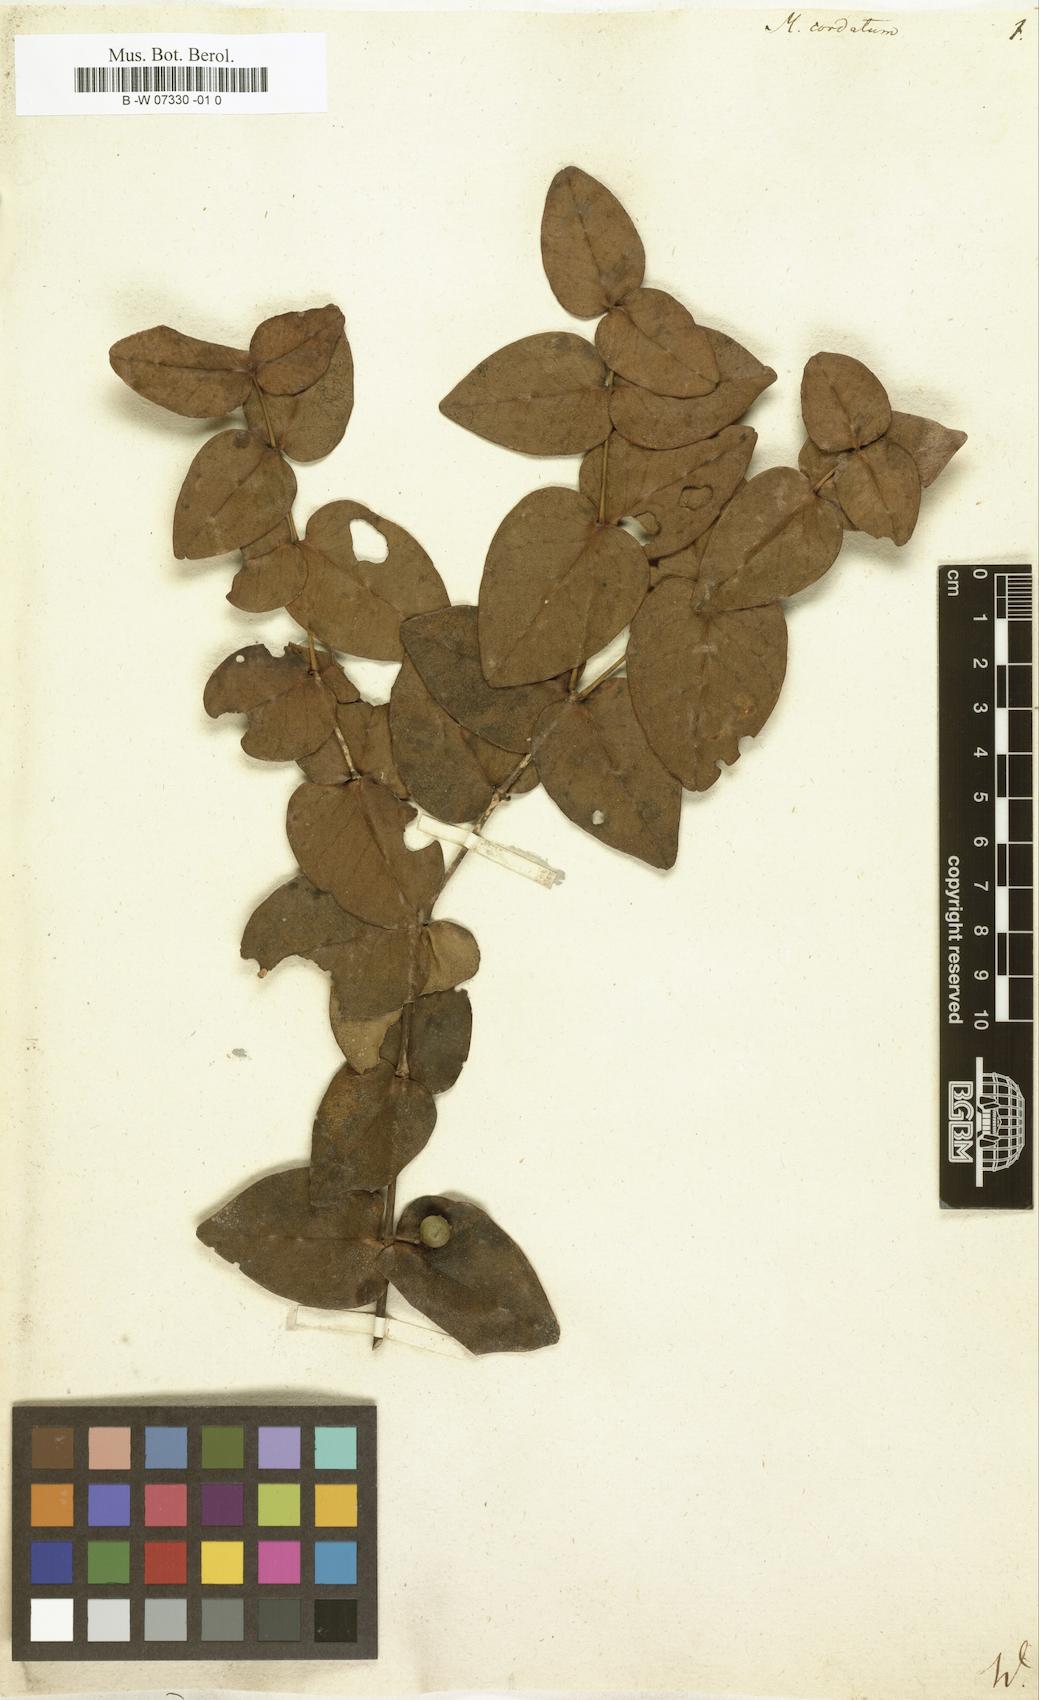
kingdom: Plantae
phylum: Tracheophyta
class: Magnoliopsida
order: Myrtales
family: Melastomataceae
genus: Memecylon
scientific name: Memecylon cordatum
